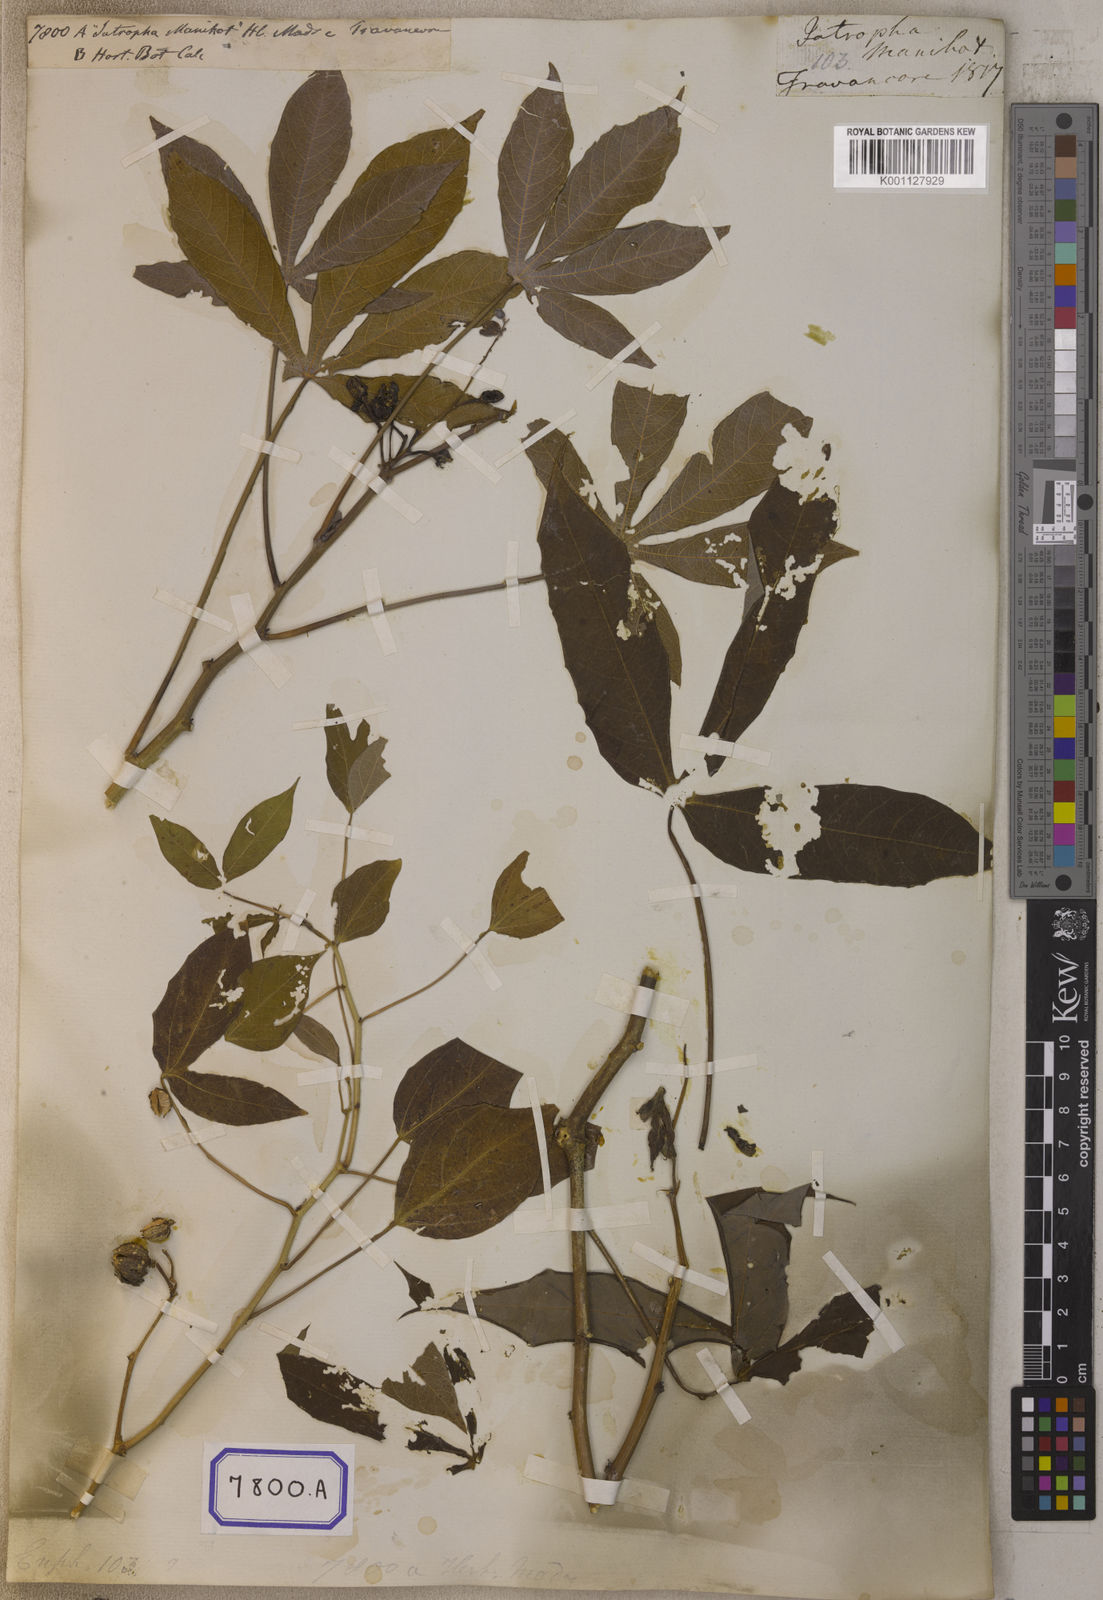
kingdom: Plantae
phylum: Tracheophyta
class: Magnoliopsida
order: Malpighiales
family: Euphorbiaceae
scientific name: Euphorbiaceae
